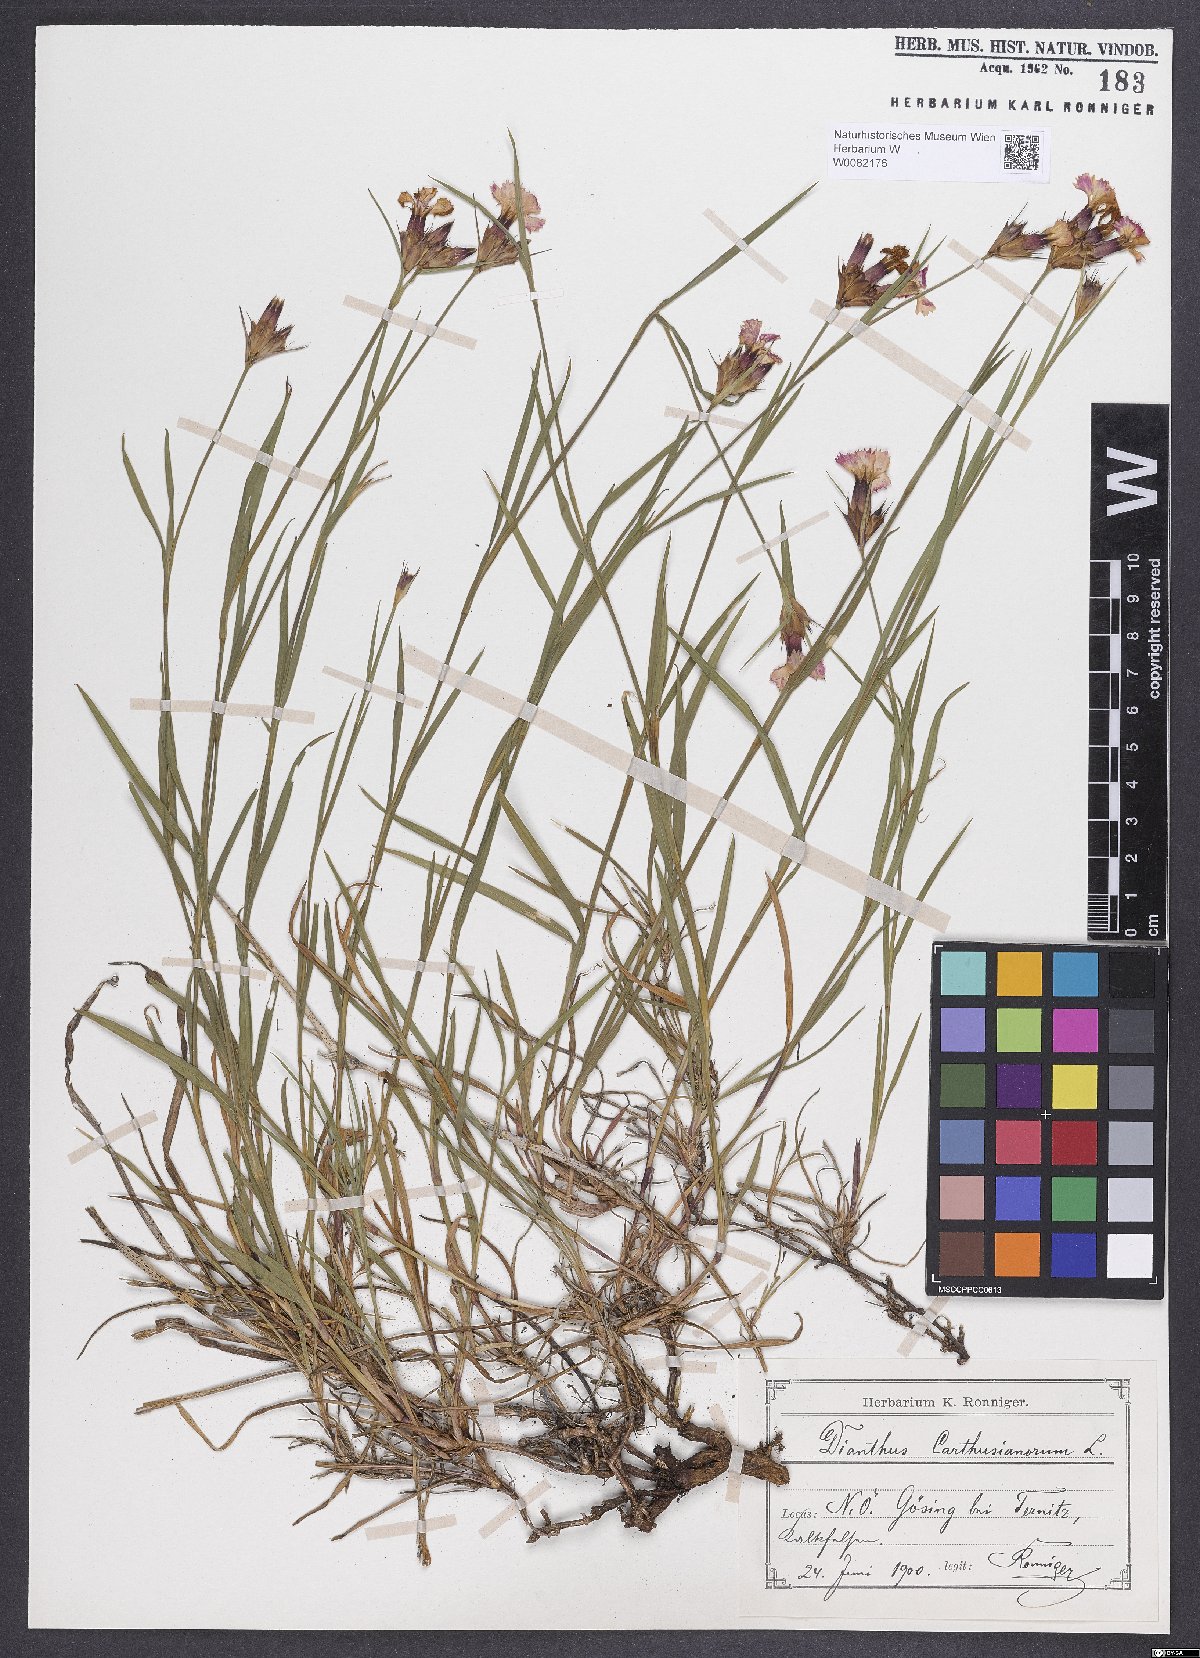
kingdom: Plantae
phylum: Tracheophyta
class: Magnoliopsida
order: Caryophyllales
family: Caryophyllaceae
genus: Dianthus
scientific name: Dianthus carthusianorum
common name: Carthusian pink
